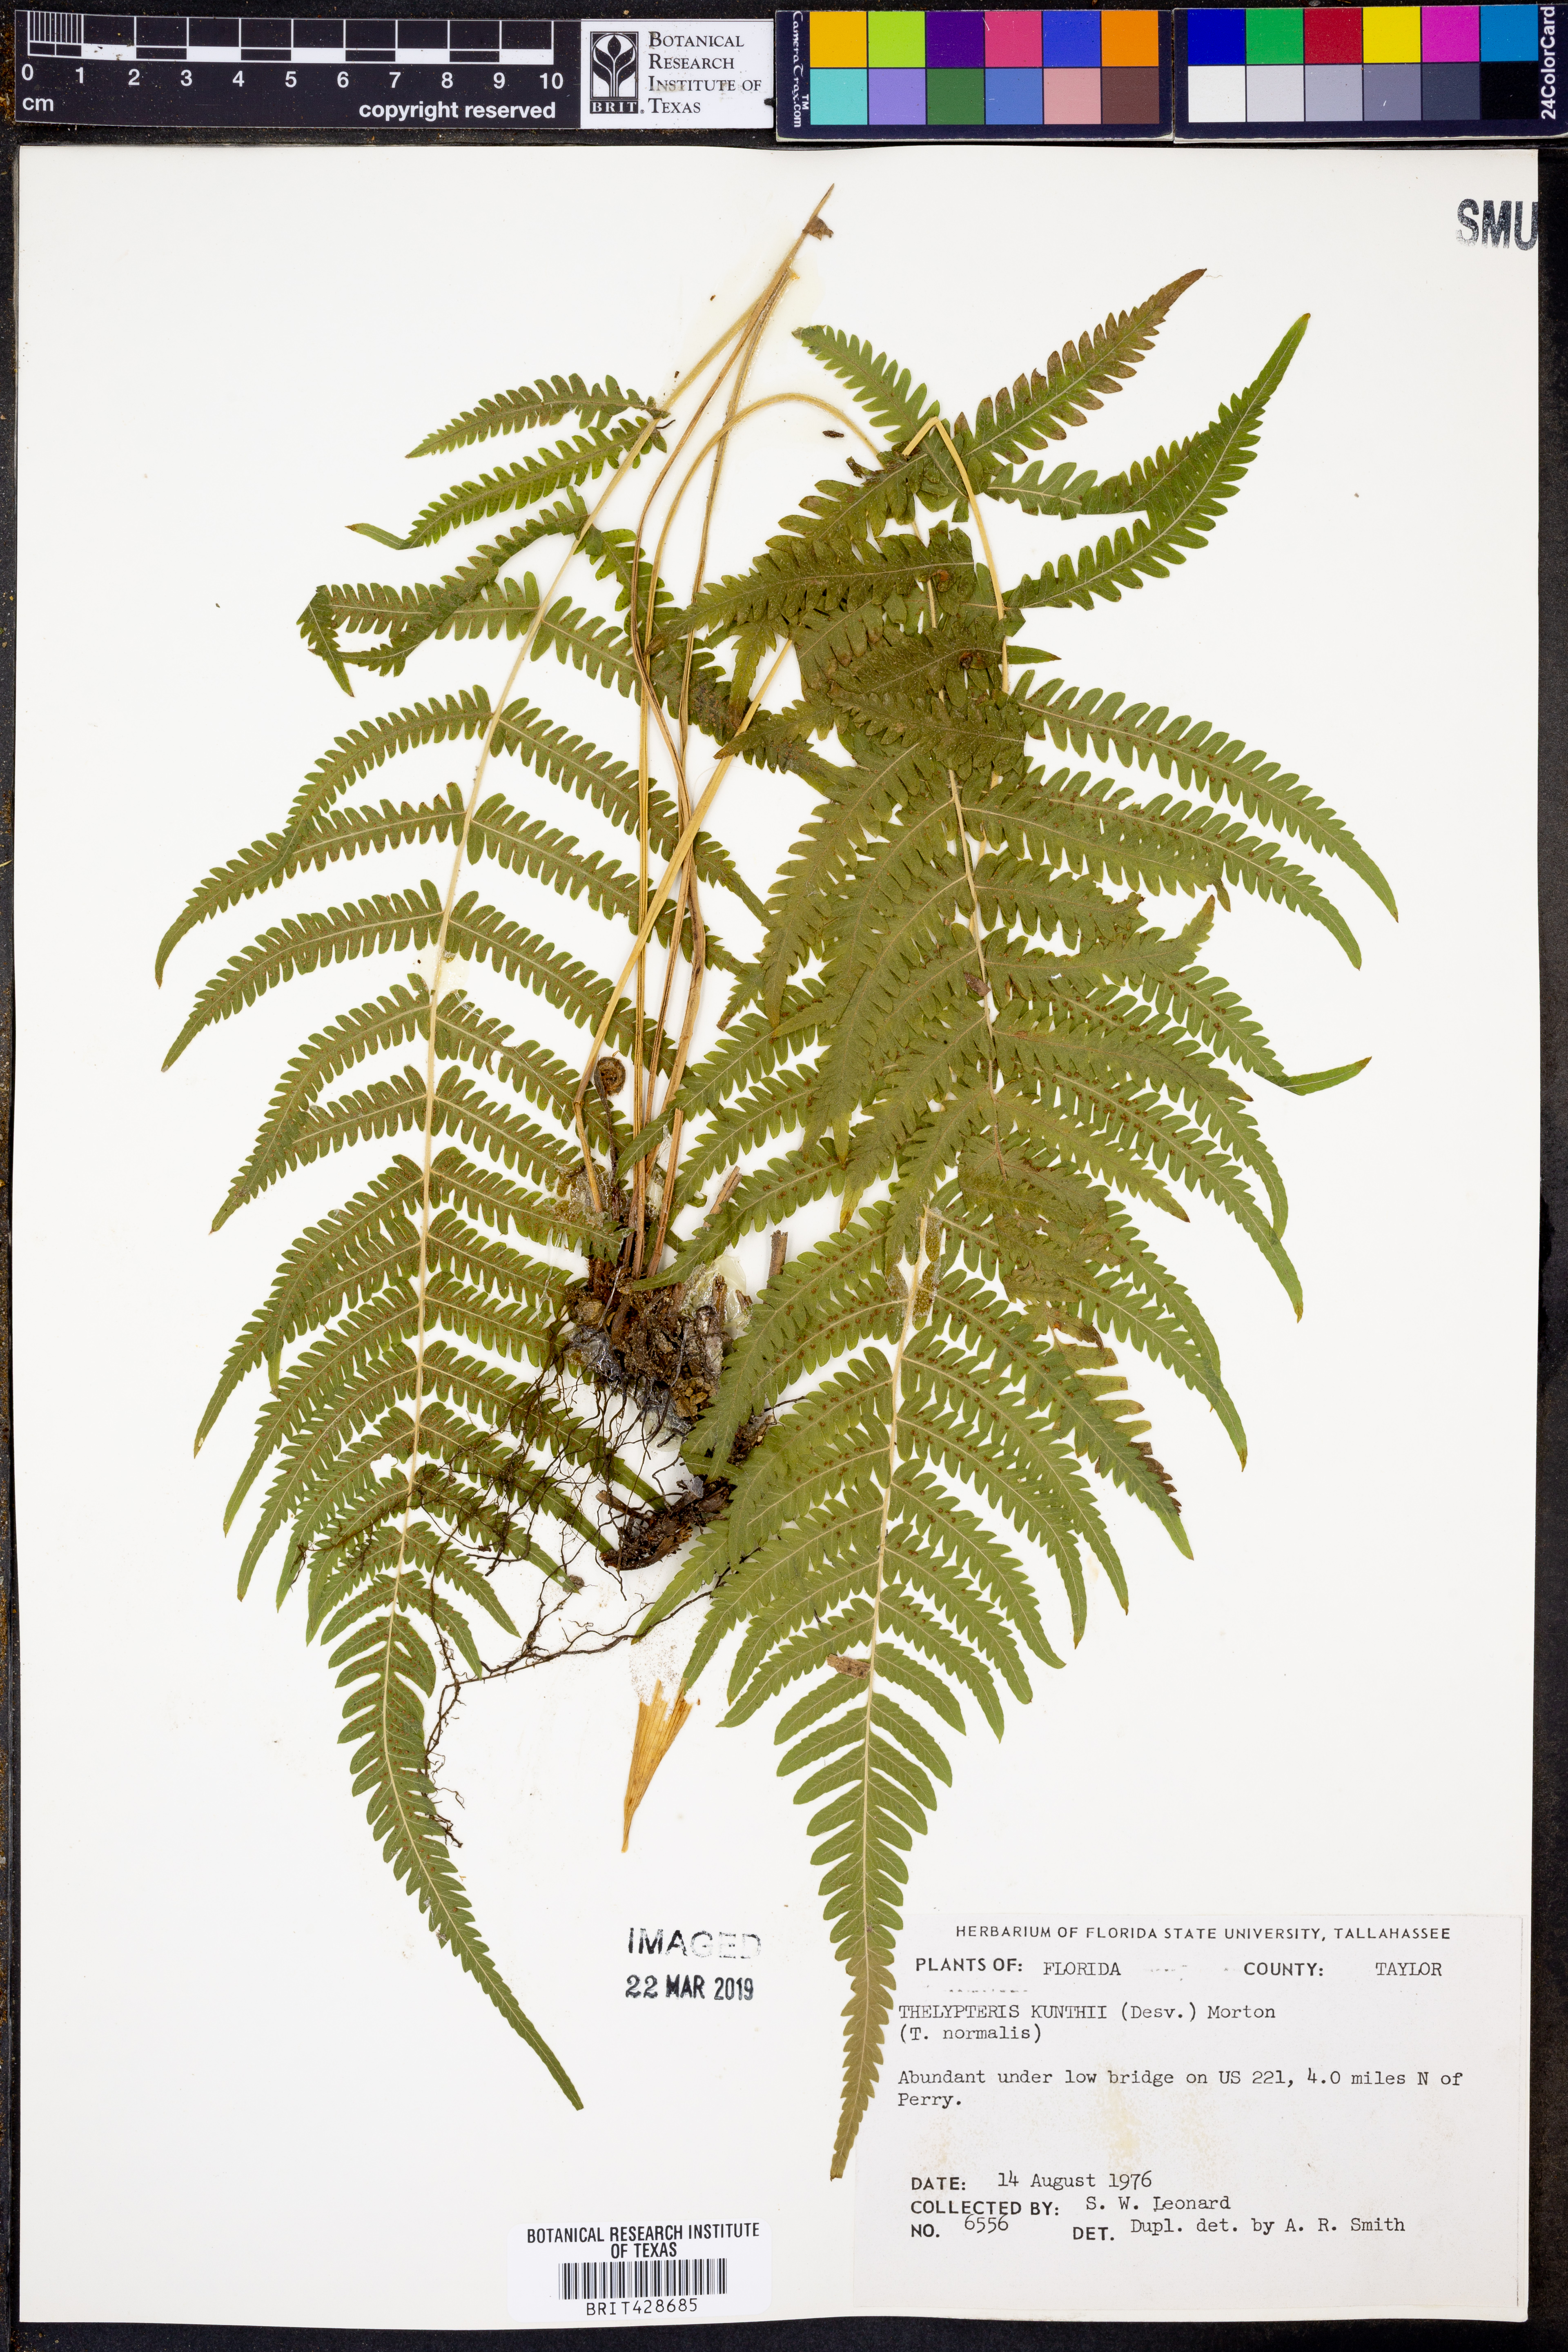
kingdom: Plantae
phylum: Tracheophyta
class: Polypodiopsida
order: Polypodiales
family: Thelypteridaceae
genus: Pelazoneuron
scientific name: Pelazoneuron kunthii
